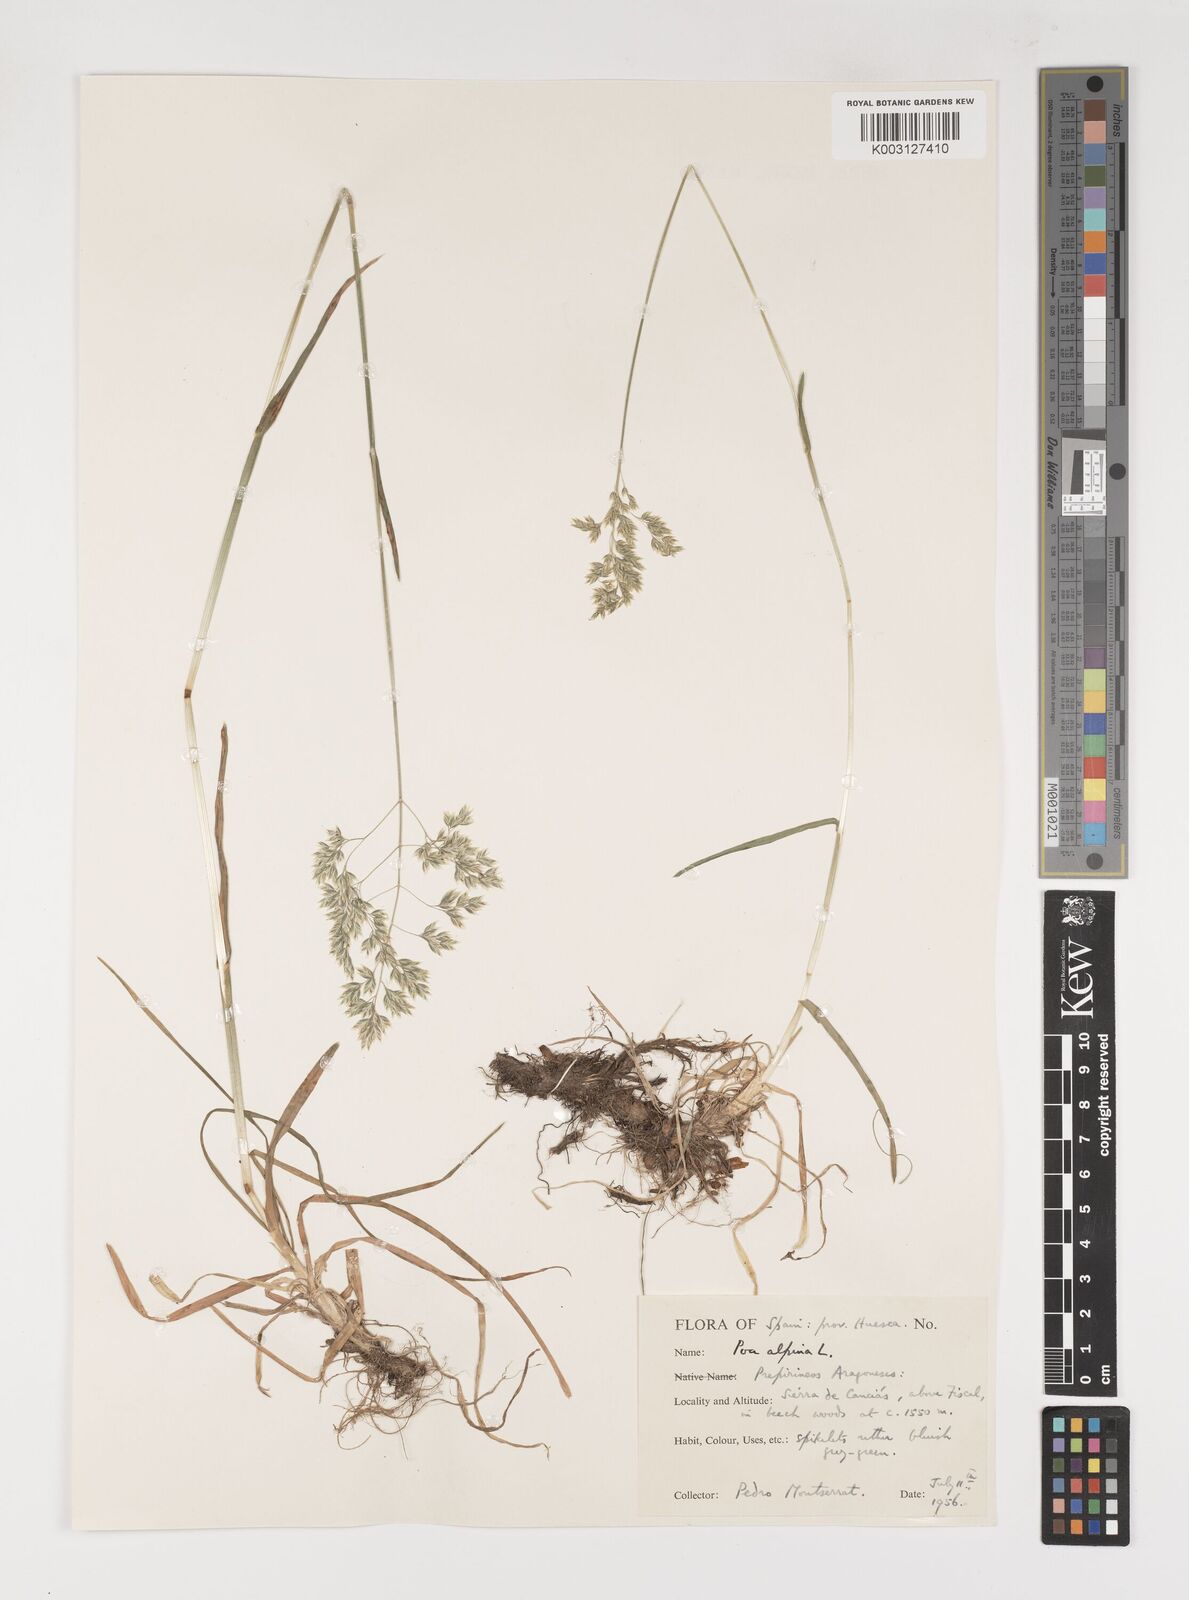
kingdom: Plantae
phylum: Tracheophyta
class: Liliopsida
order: Poales
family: Poaceae
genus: Poa
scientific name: Poa alpina
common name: Alpine bluegrass
